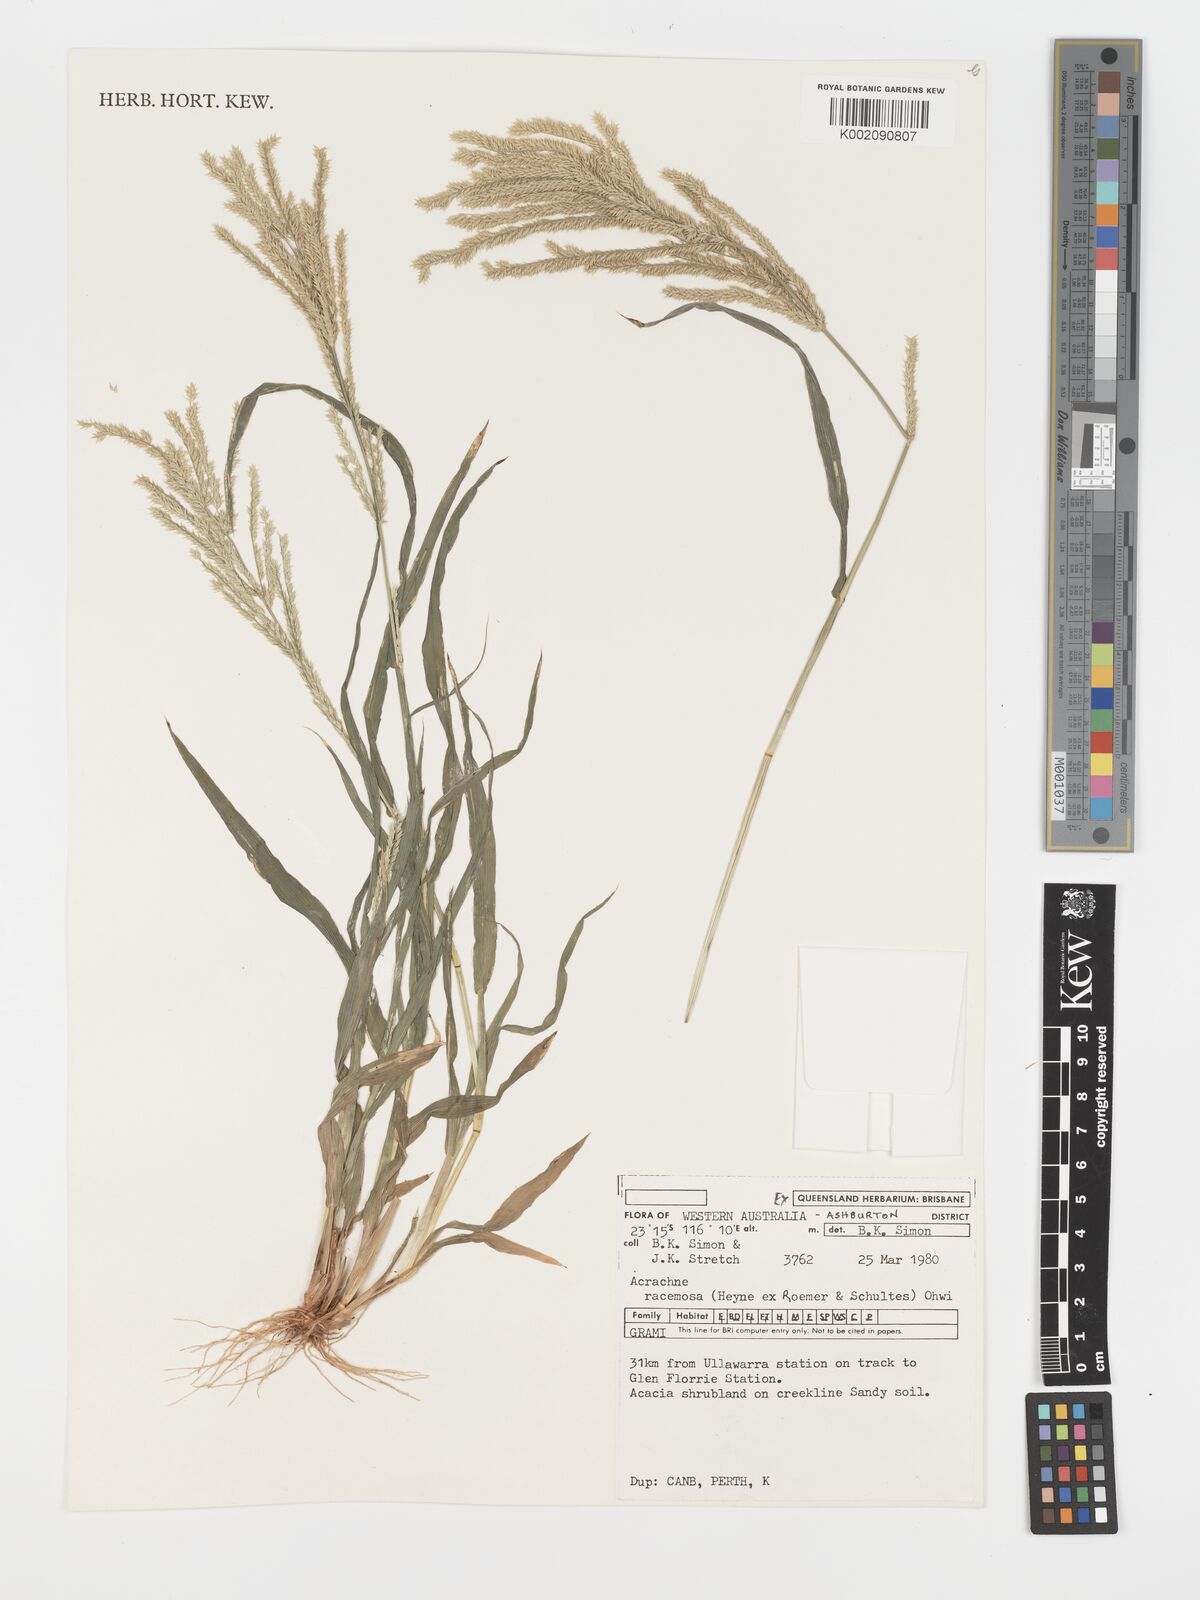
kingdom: Plantae
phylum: Tracheophyta
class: Liliopsida
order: Poales
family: Poaceae
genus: Acrachne
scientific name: Acrachne racemosa
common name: Goosegrass
